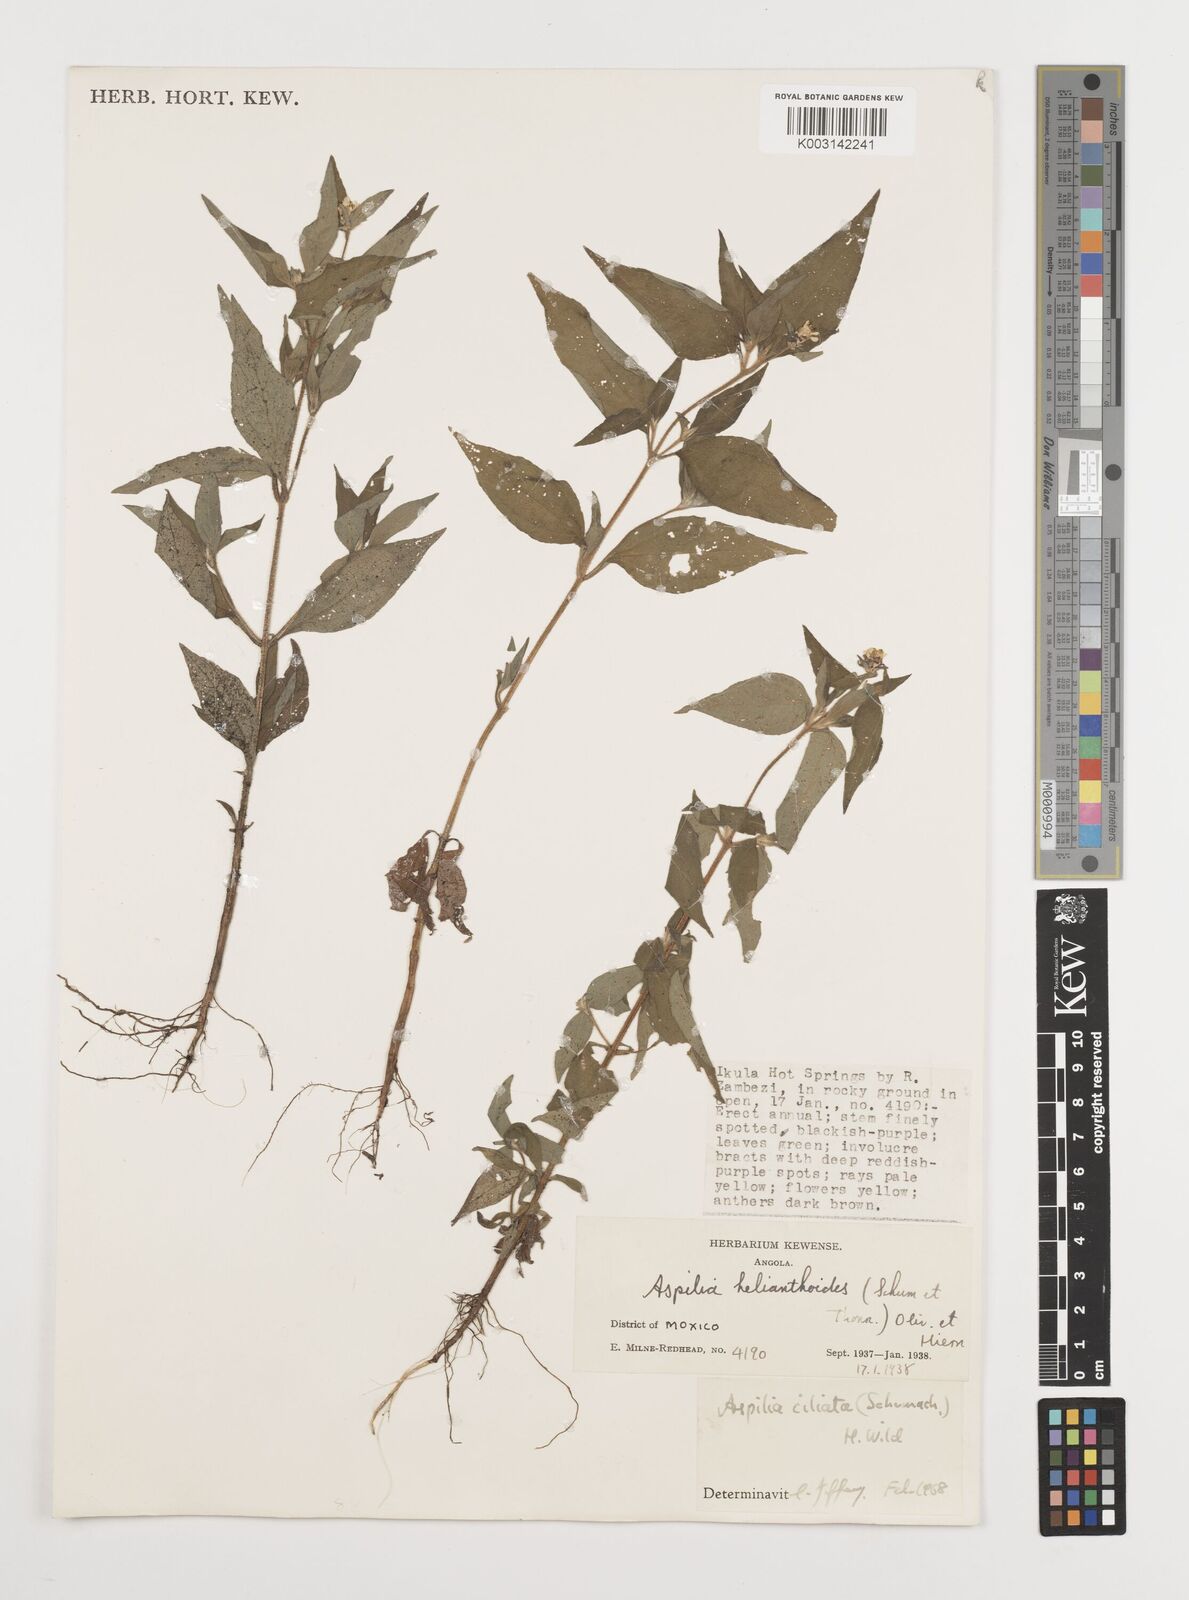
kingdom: Plantae
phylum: Tracheophyta
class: Magnoliopsida
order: Asterales
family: Asteraceae
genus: Aspilia
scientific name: Aspilia ciliata
